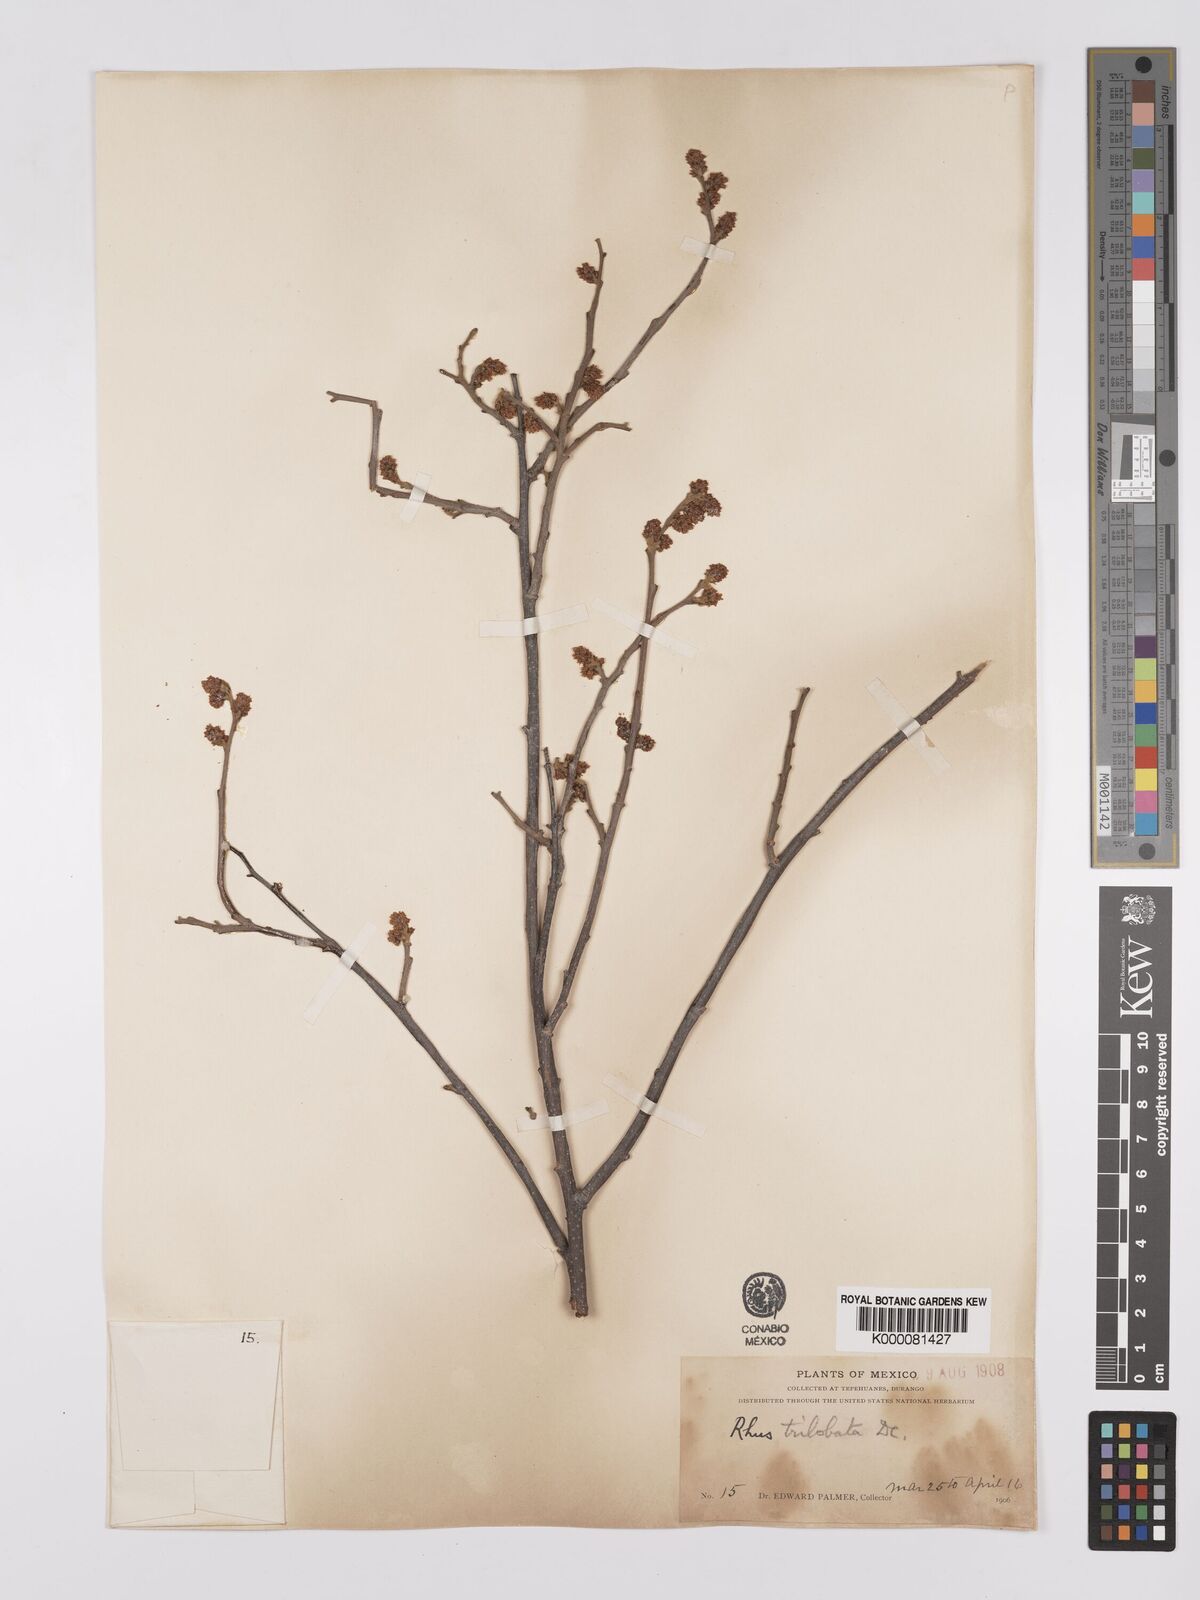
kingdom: Plantae
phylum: Tracheophyta
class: Magnoliopsida
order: Sapindales
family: Anacardiaceae
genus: Rhus
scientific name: Rhus
